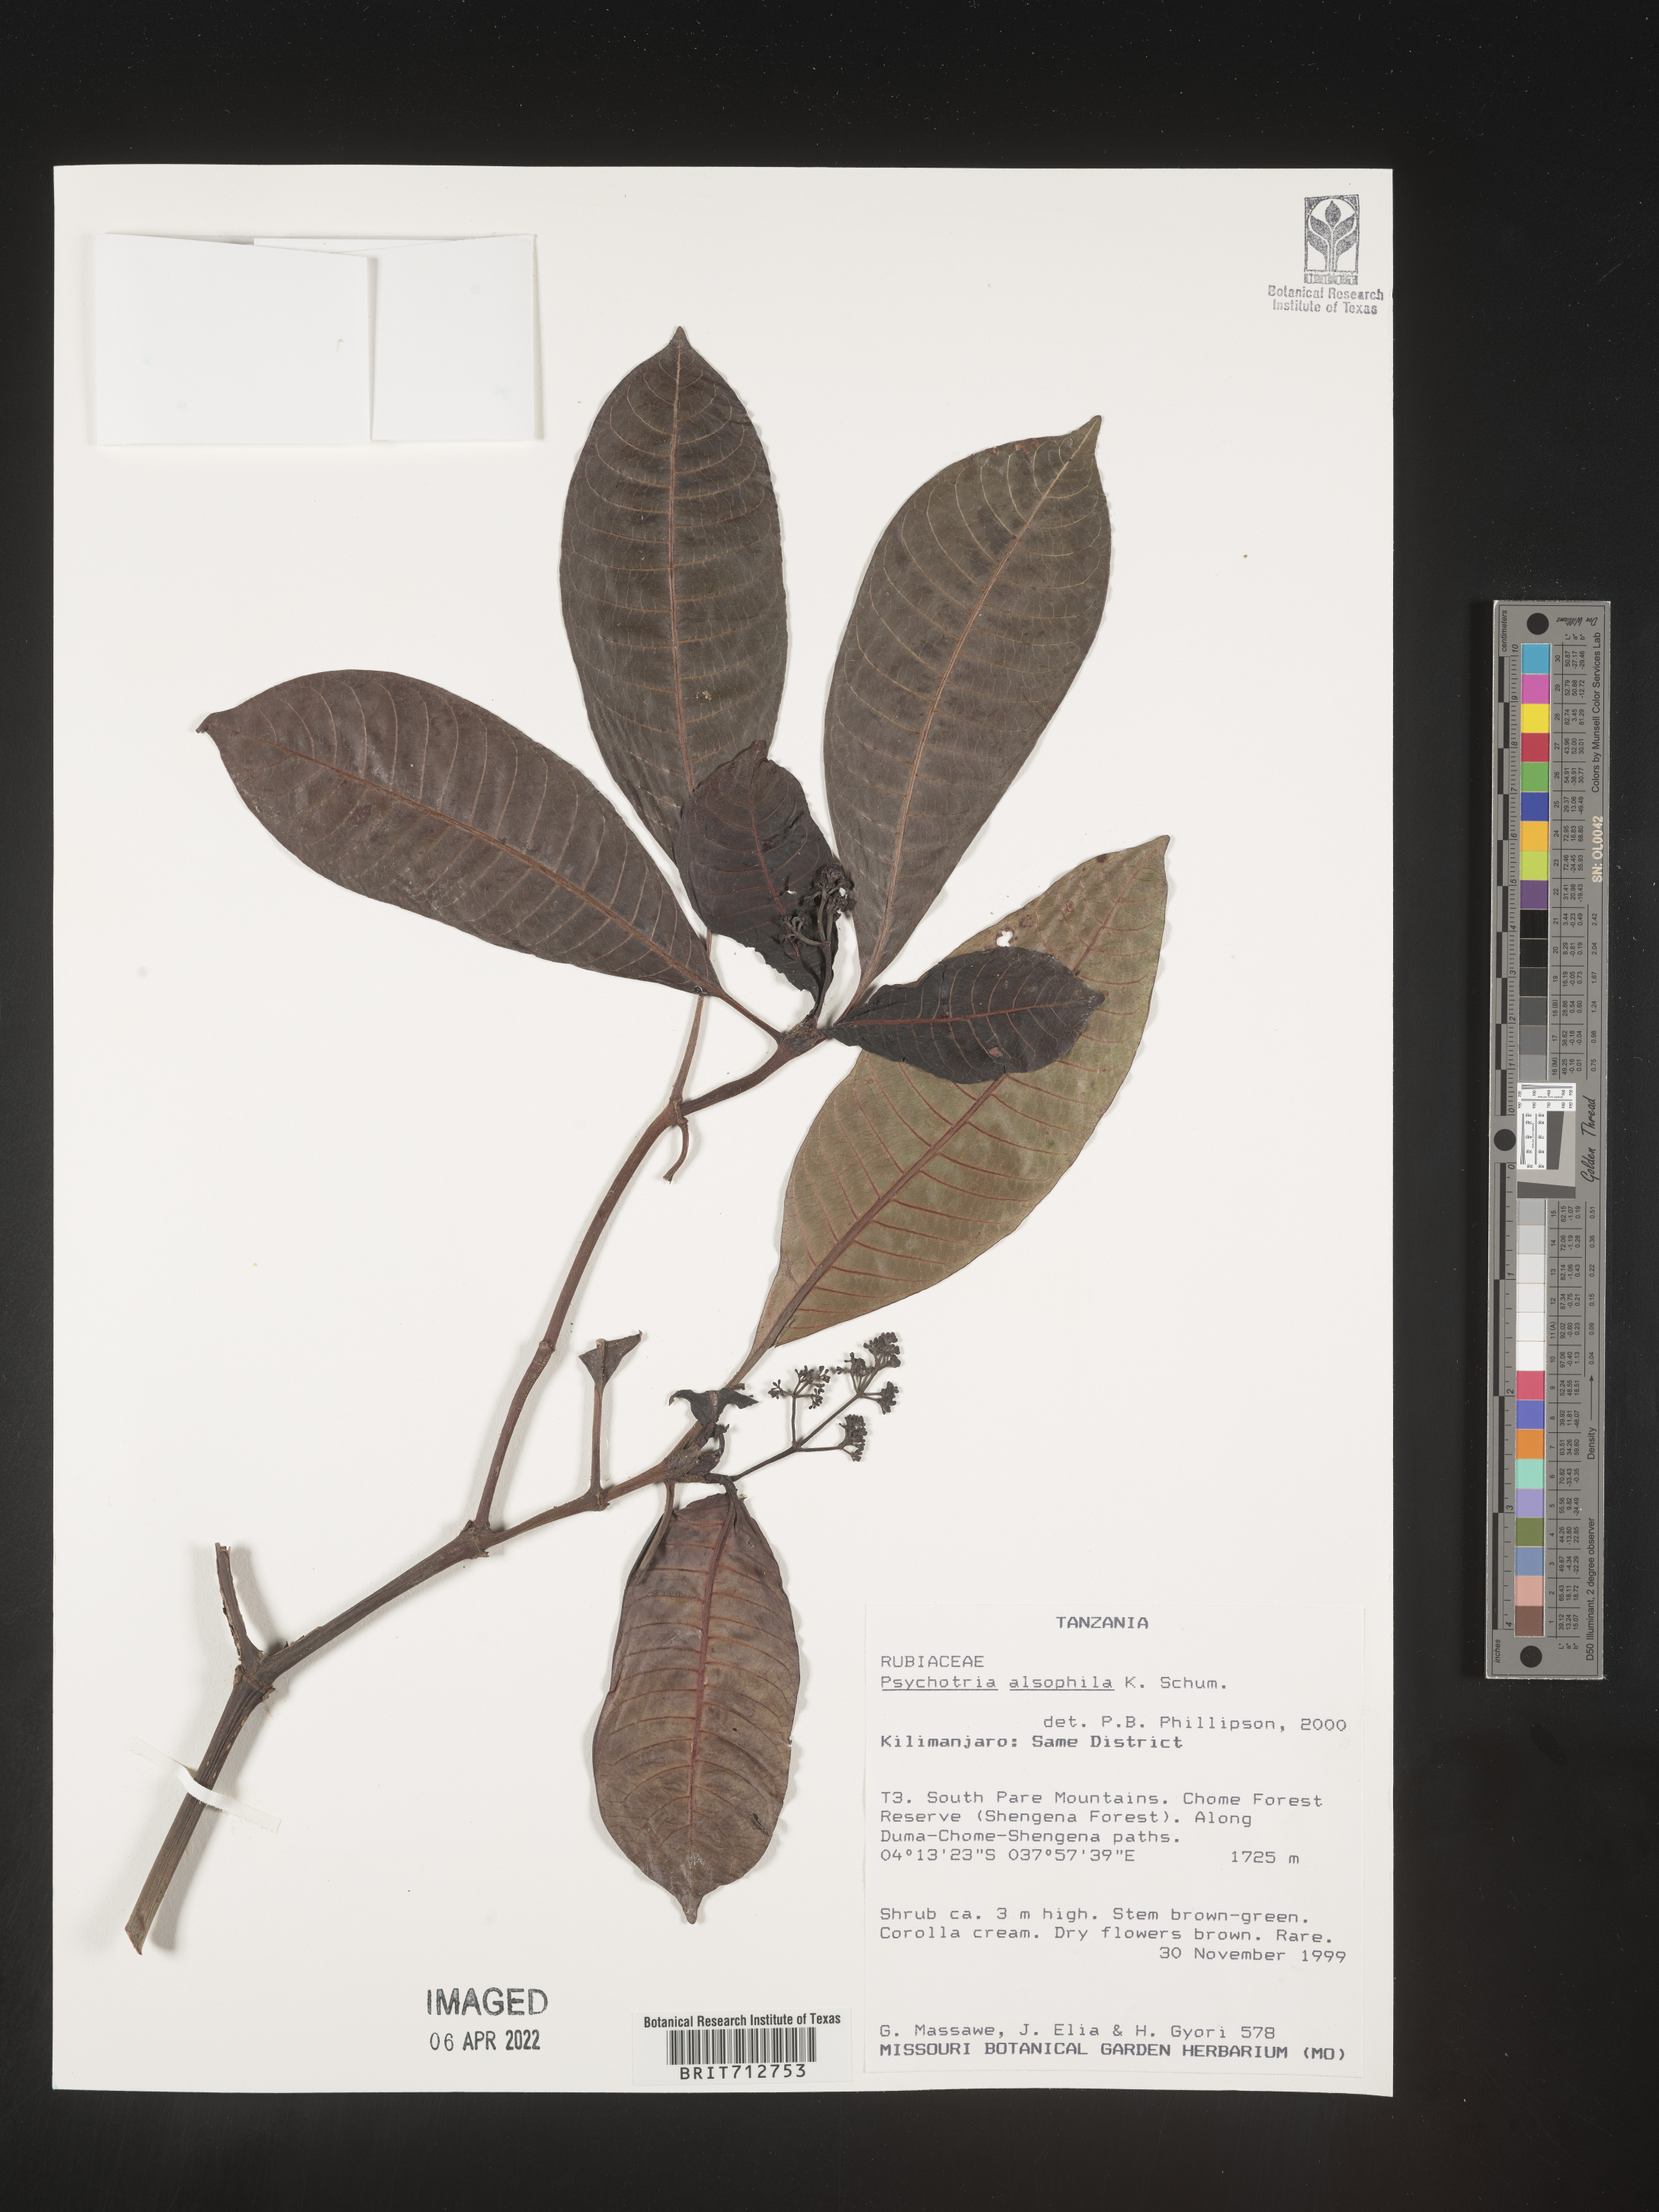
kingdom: Plantae
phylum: Tracheophyta
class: Magnoliopsida
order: Gentianales
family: Rubiaceae
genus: Psychotria
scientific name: Psychotria
